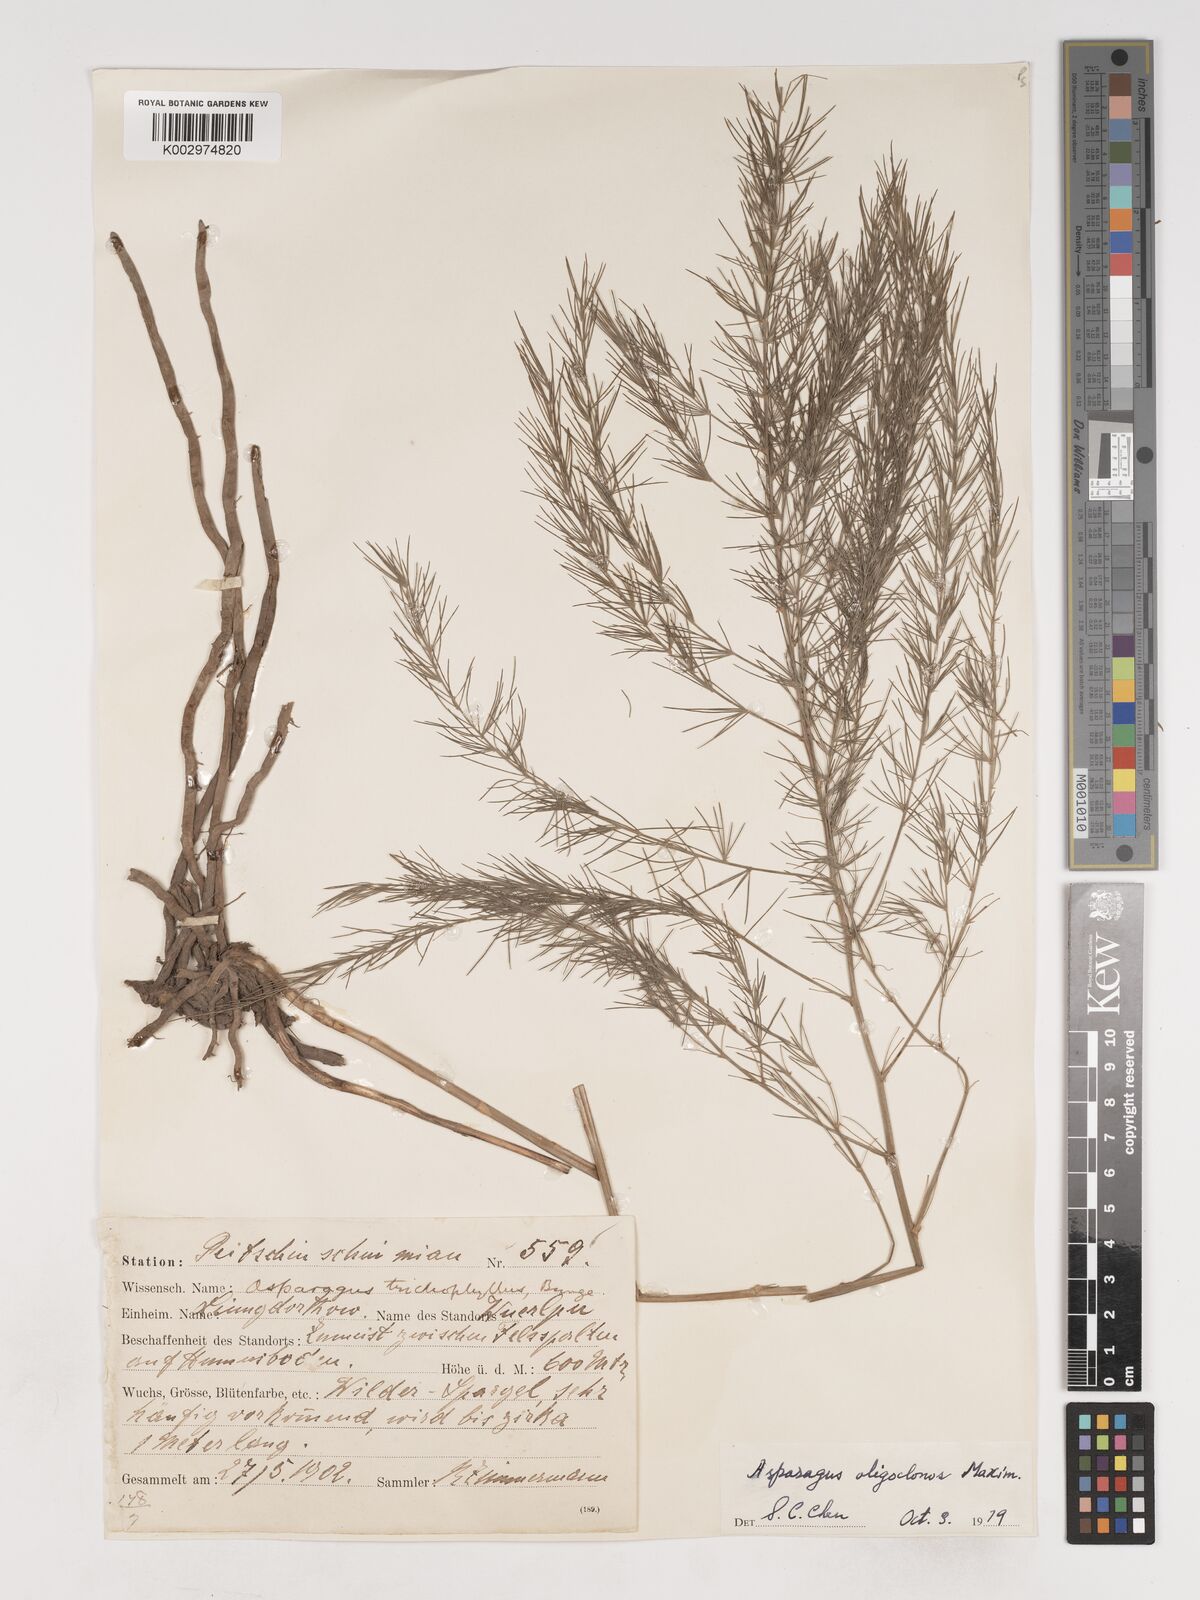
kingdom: Plantae
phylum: Tracheophyta
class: Liliopsida
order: Asparagales
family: Asparagaceae
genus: Asparagus
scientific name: Asparagus oligoclonos
